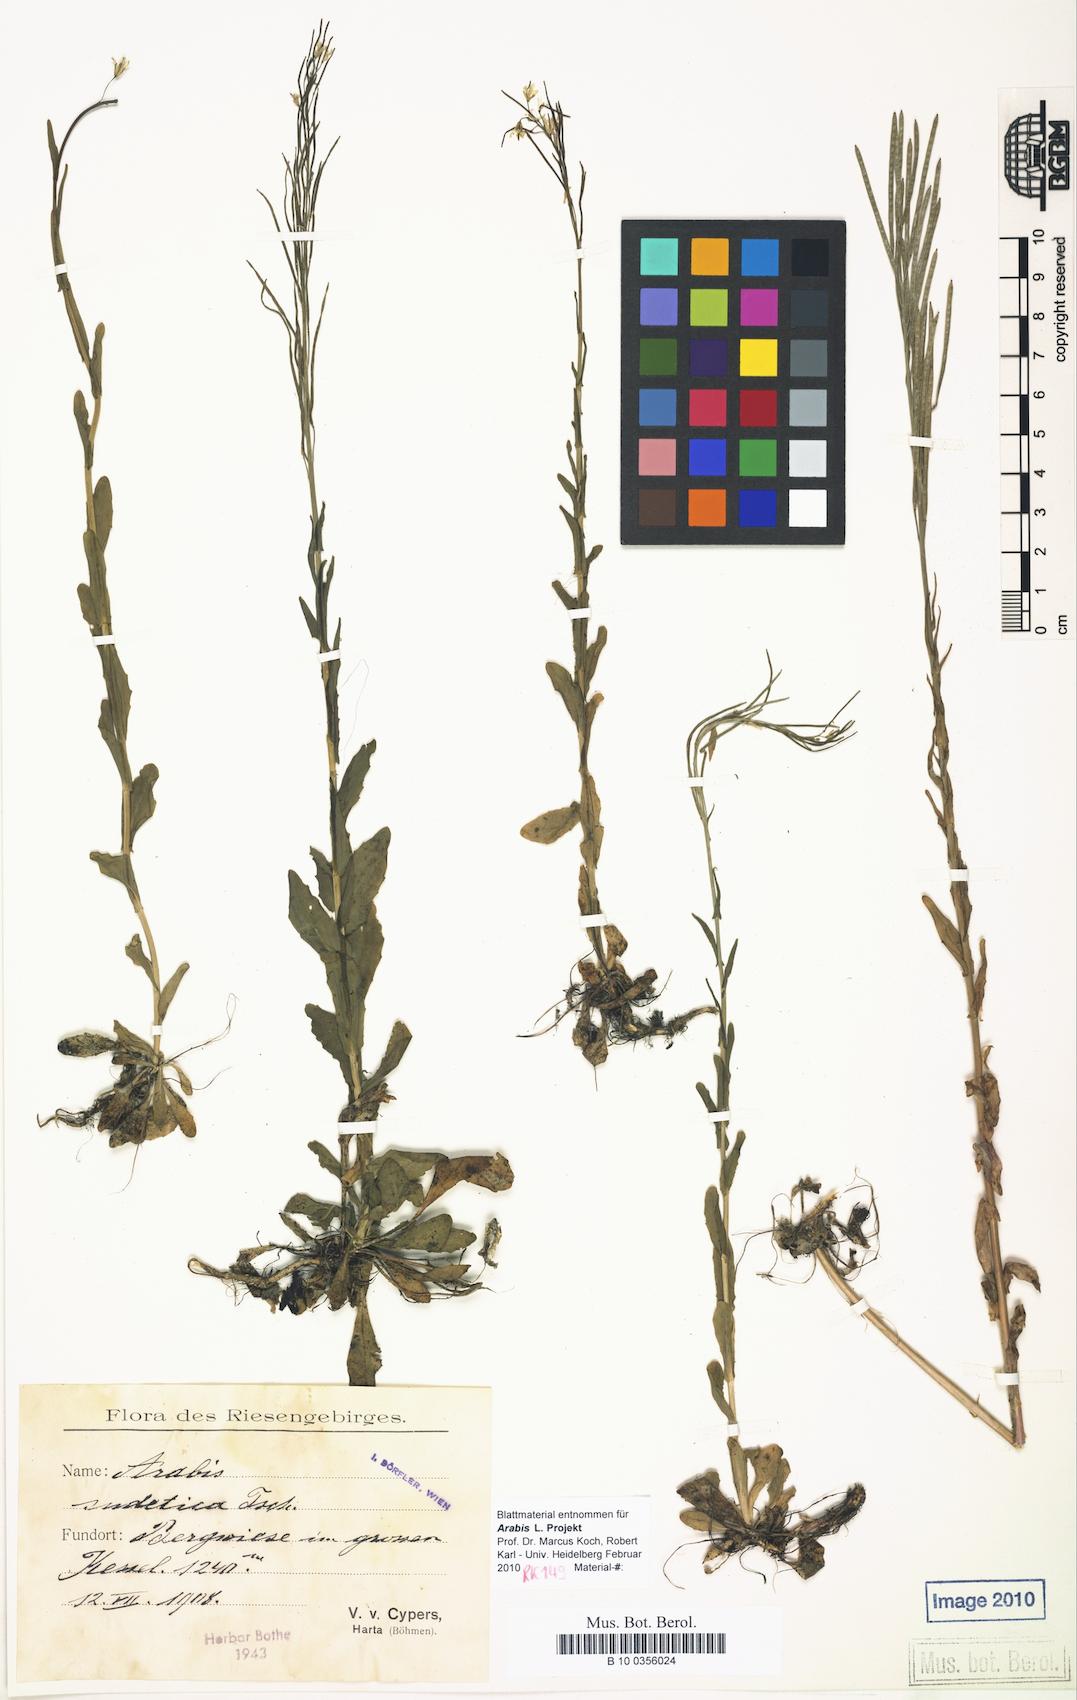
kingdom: Plantae
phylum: Tracheophyta
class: Magnoliopsida
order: Brassicales
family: Brassicaceae
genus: Arabis
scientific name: Arabis sudetica
